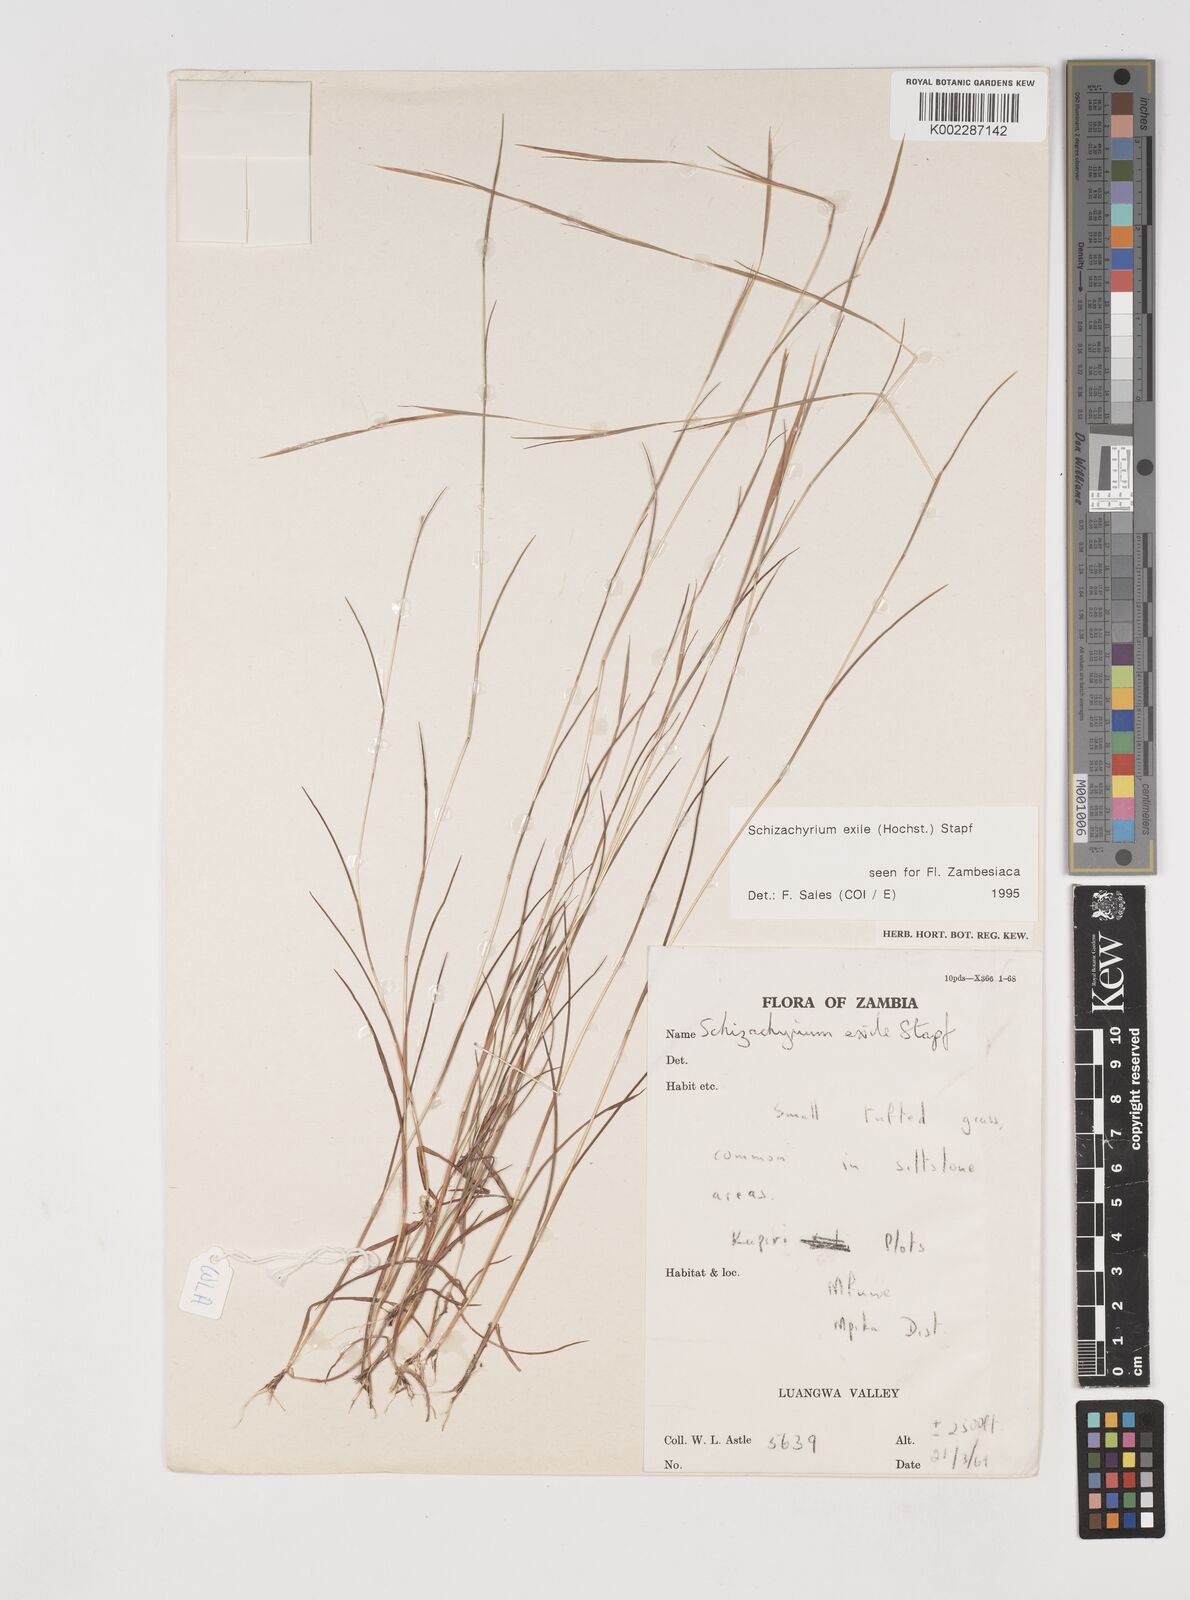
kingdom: Plantae
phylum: Tracheophyta
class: Liliopsida
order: Poales
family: Poaceae
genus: Schizachyrium
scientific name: Schizachyrium exile
